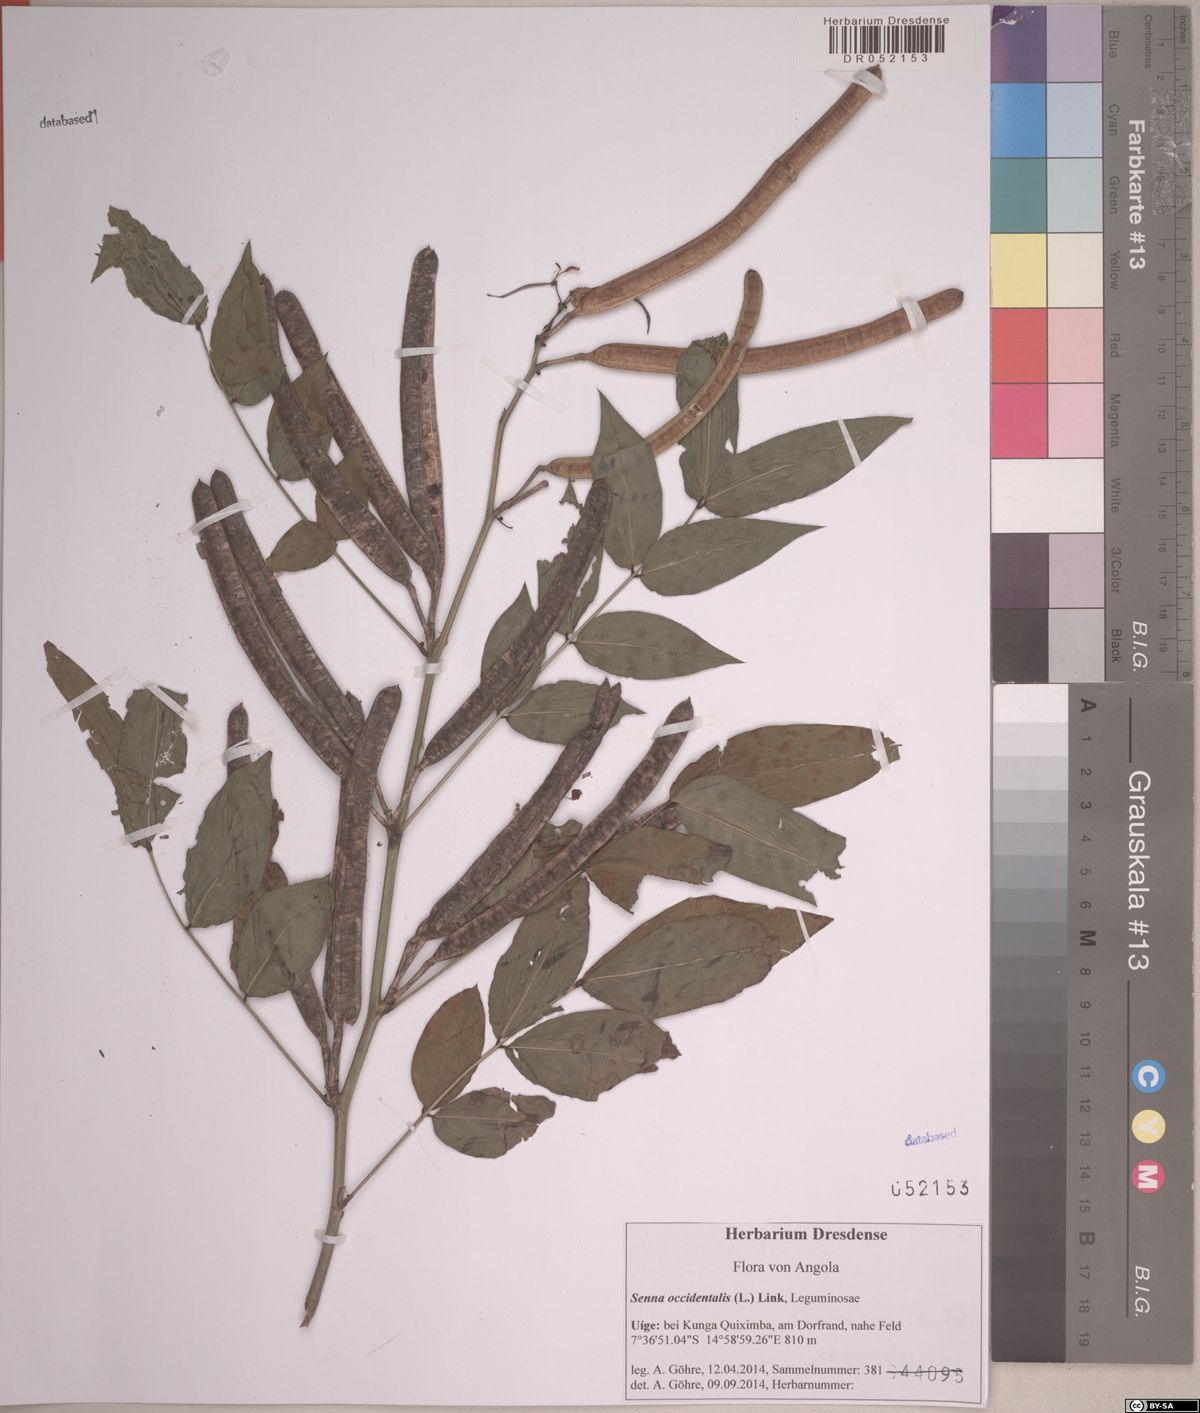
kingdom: Plantae
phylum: Tracheophyta
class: Magnoliopsida
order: Fabales
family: Fabaceae
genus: Senna
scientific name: Senna occidentalis
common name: Septicweed
